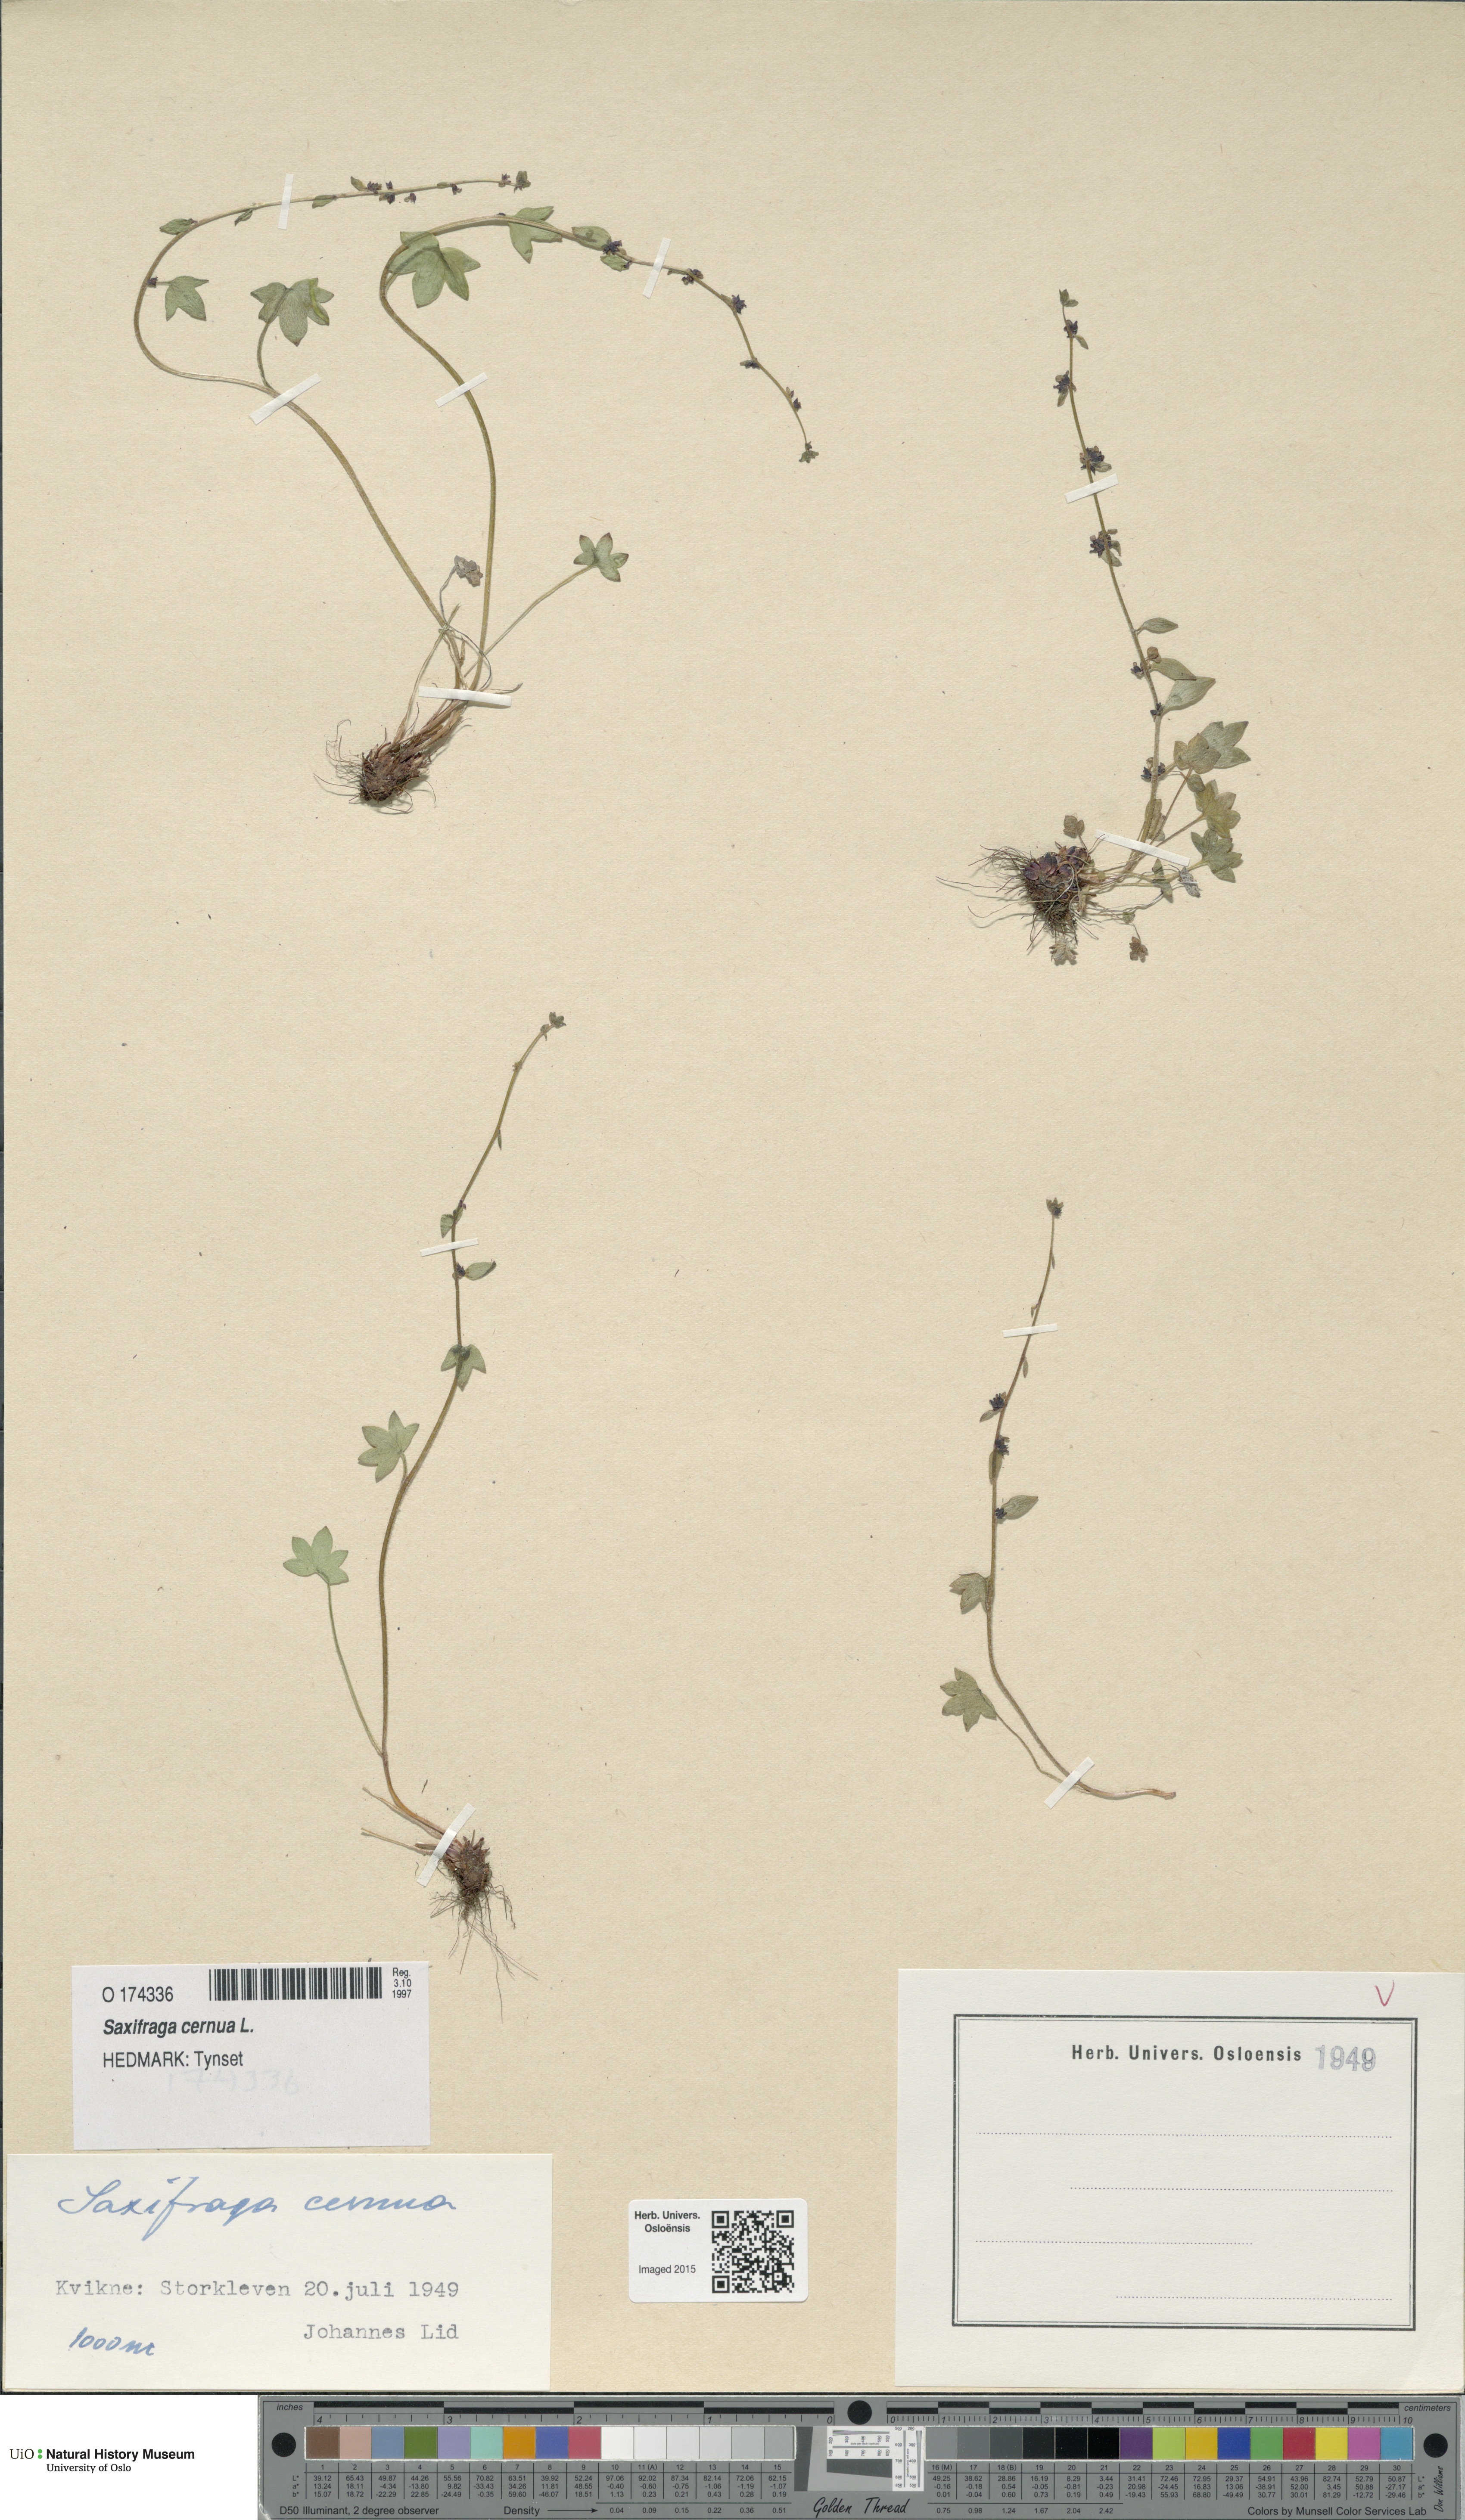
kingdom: Plantae
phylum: Tracheophyta
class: Magnoliopsida
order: Saxifragales
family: Saxifragaceae
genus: Saxifraga
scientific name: Saxifraga cernua
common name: Drooping saxifrage
